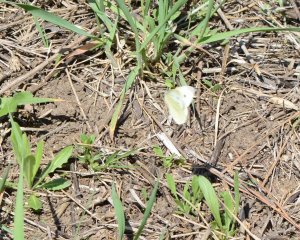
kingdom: Animalia
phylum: Arthropoda
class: Insecta
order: Lepidoptera
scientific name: Lepidoptera
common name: Butterflies
